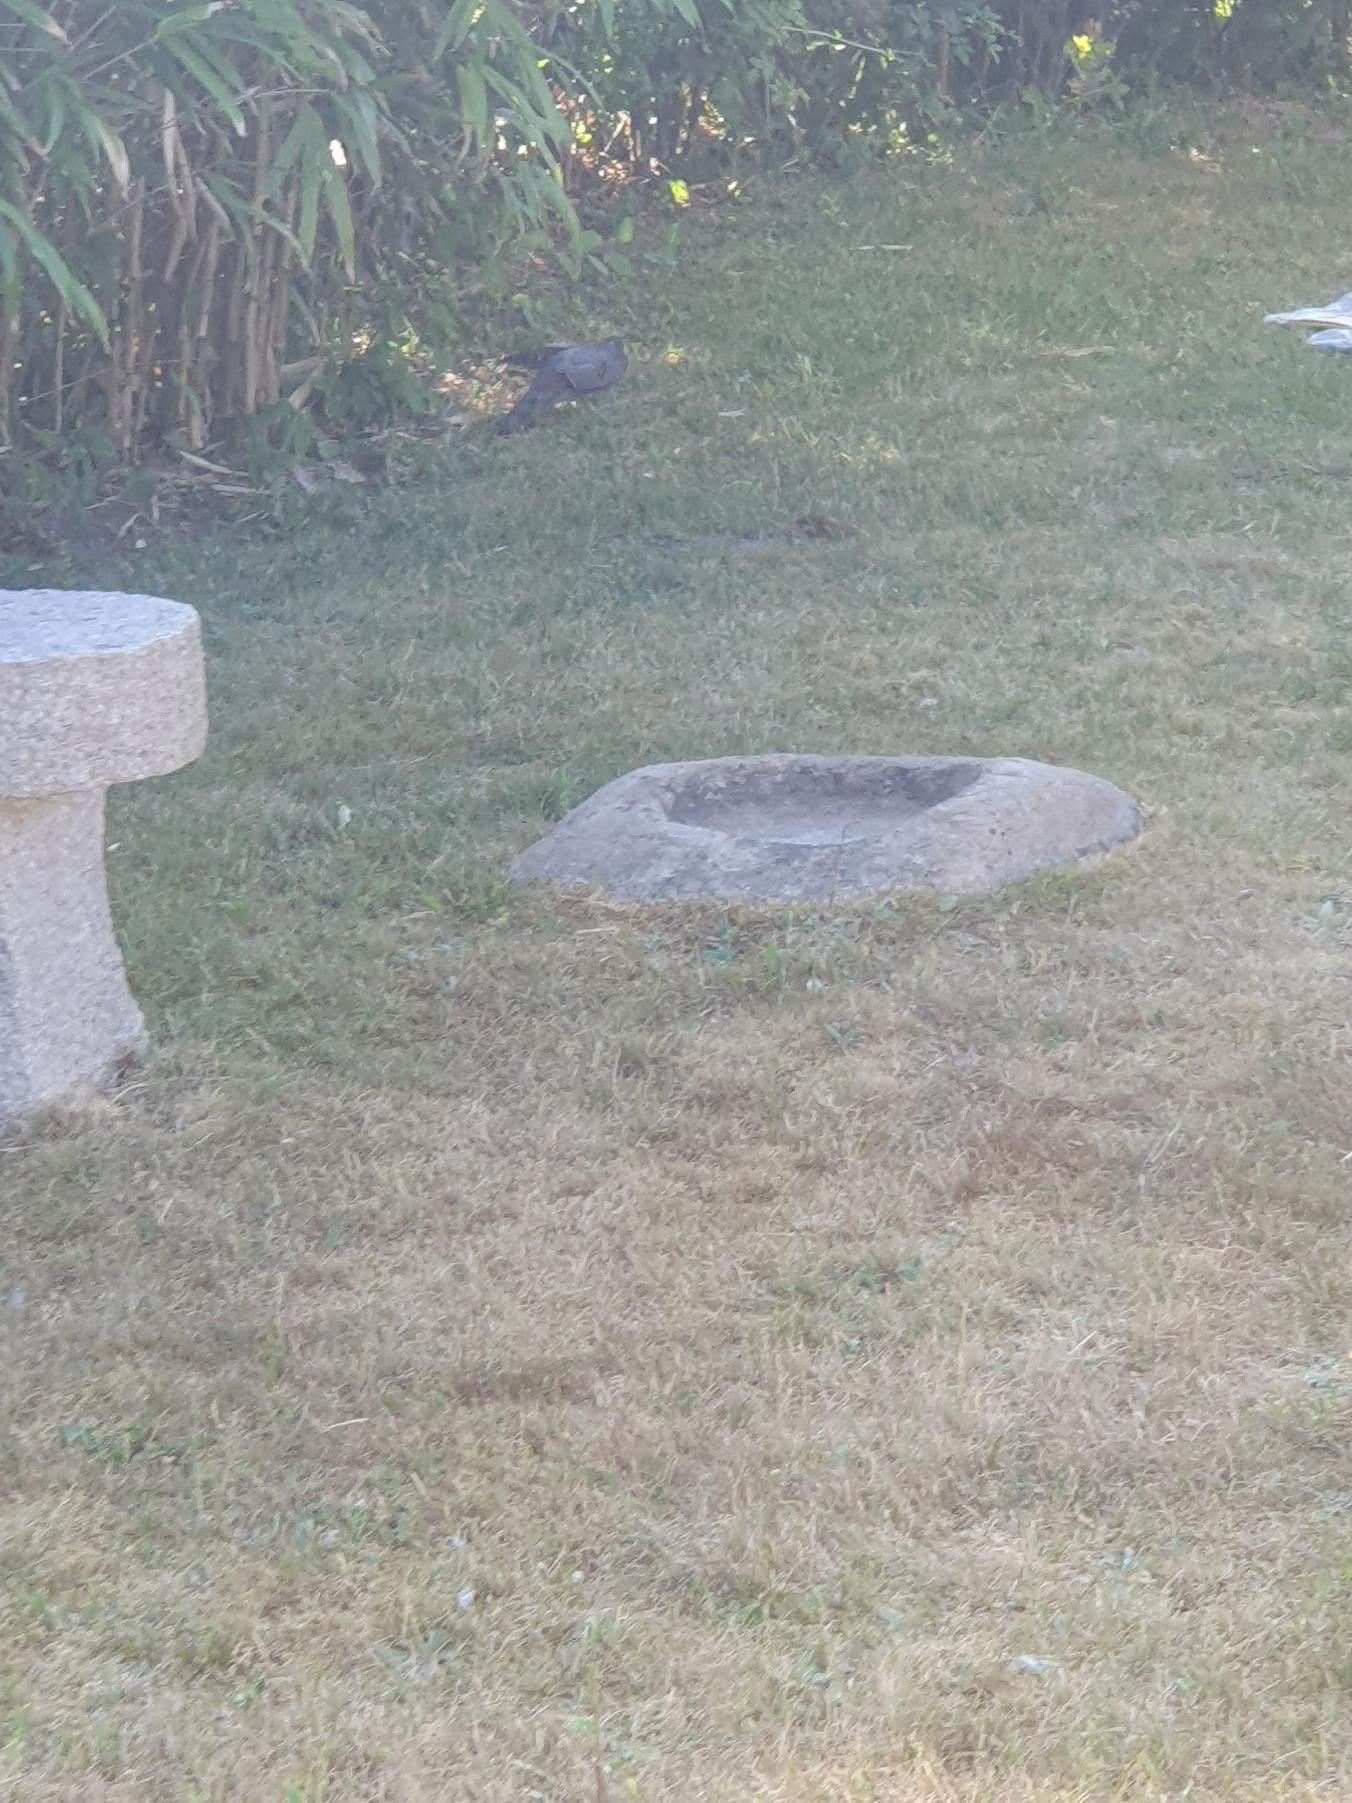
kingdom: Animalia
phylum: Chordata
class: Aves
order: Accipitriformes
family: Accipitridae
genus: Accipiter
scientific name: Accipiter nisus
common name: Spurvehøg
